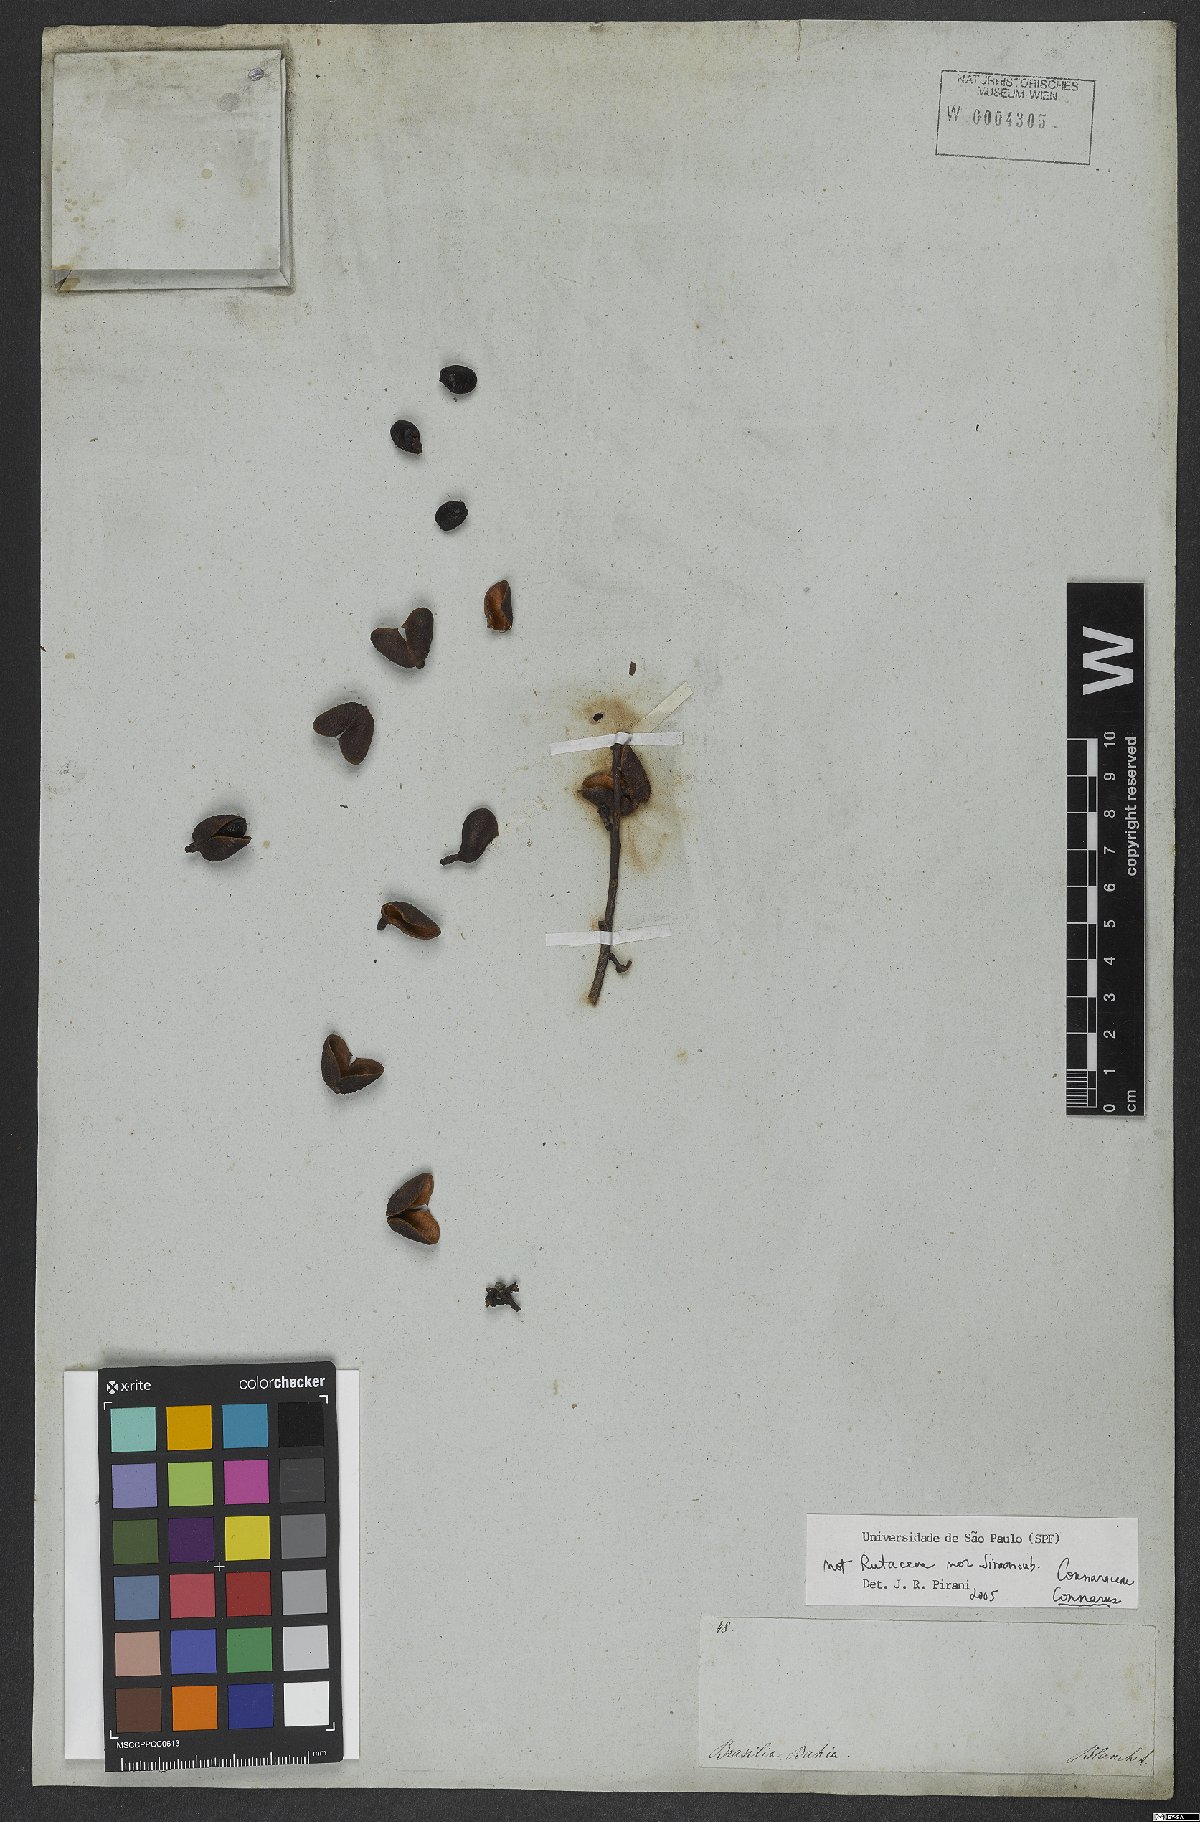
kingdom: Plantae
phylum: Tracheophyta
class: Magnoliopsida
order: Oxalidales
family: Connaraceae
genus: Connarus
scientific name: Connarus
